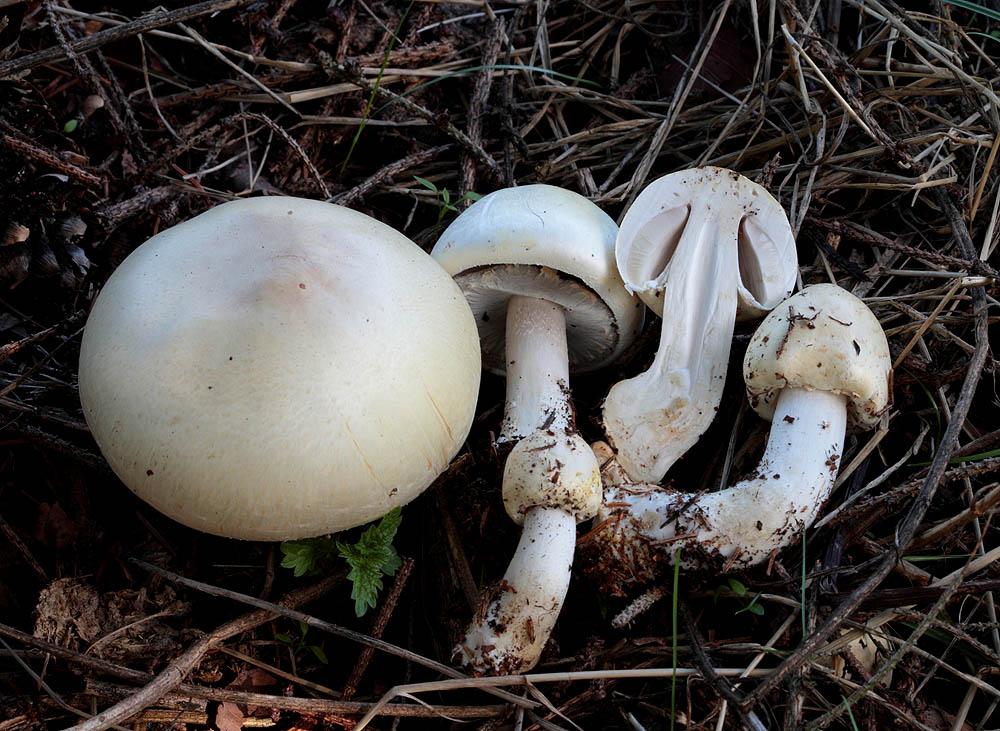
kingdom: Fungi
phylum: Basidiomycota
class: Agaricomycetes
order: Agaricales
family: Agaricaceae
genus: Agaricus
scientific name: Agaricus arvensis
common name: ager-champignon
